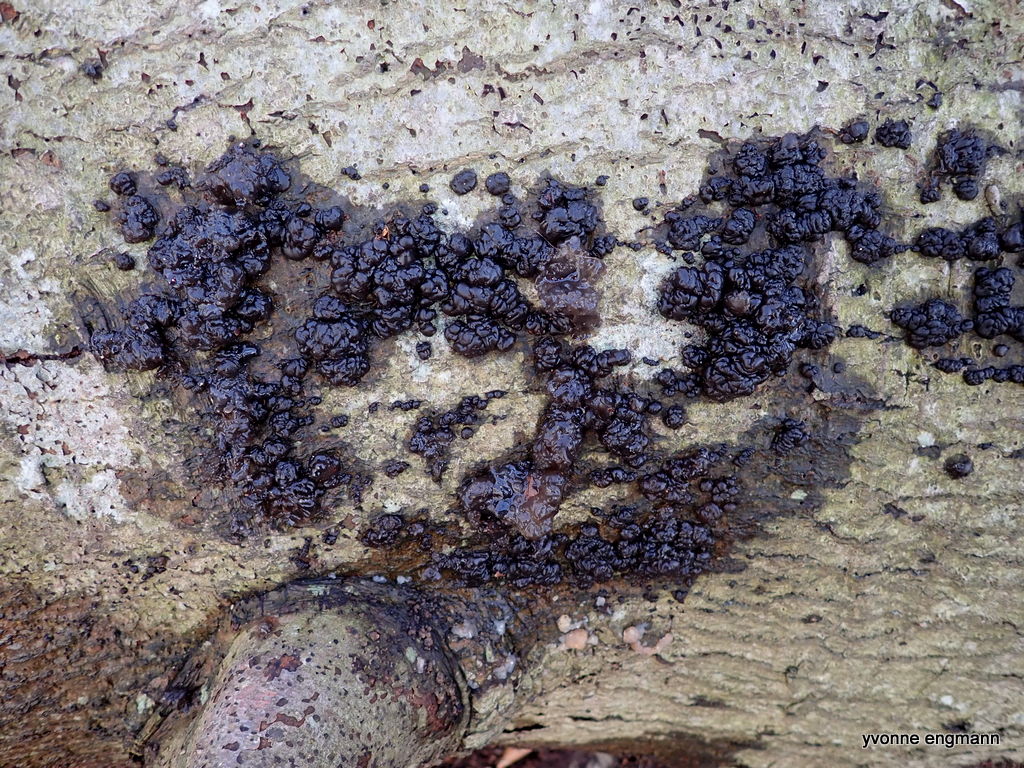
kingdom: Fungi
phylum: Basidiomycota
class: Agaricomycetes
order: Auriculariales
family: Auriculariaceae
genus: Exidia
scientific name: Exidia nigricans
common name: almindelig bævretop
